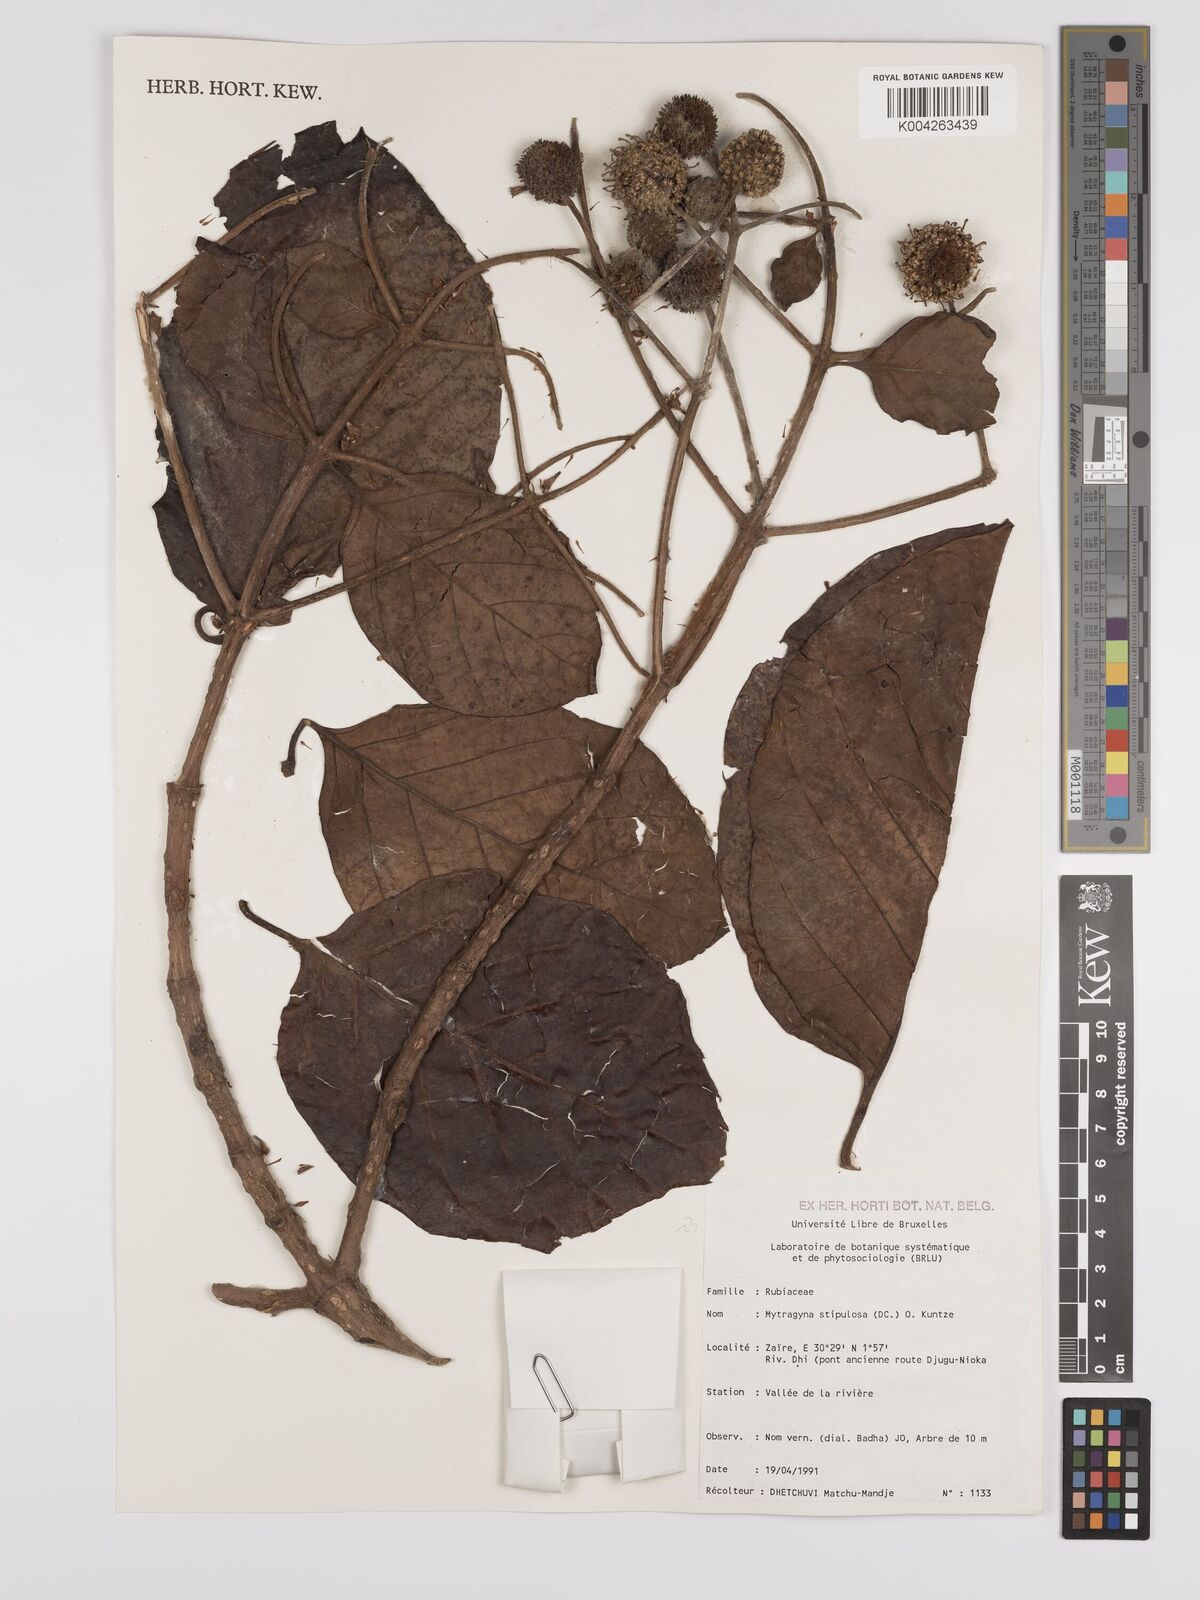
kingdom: Plantae
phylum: Tracheophyta
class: Magnoliopsida
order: Gentianales
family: Rubiaceae
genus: Mitragyna
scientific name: Mitragyna stipulosa
